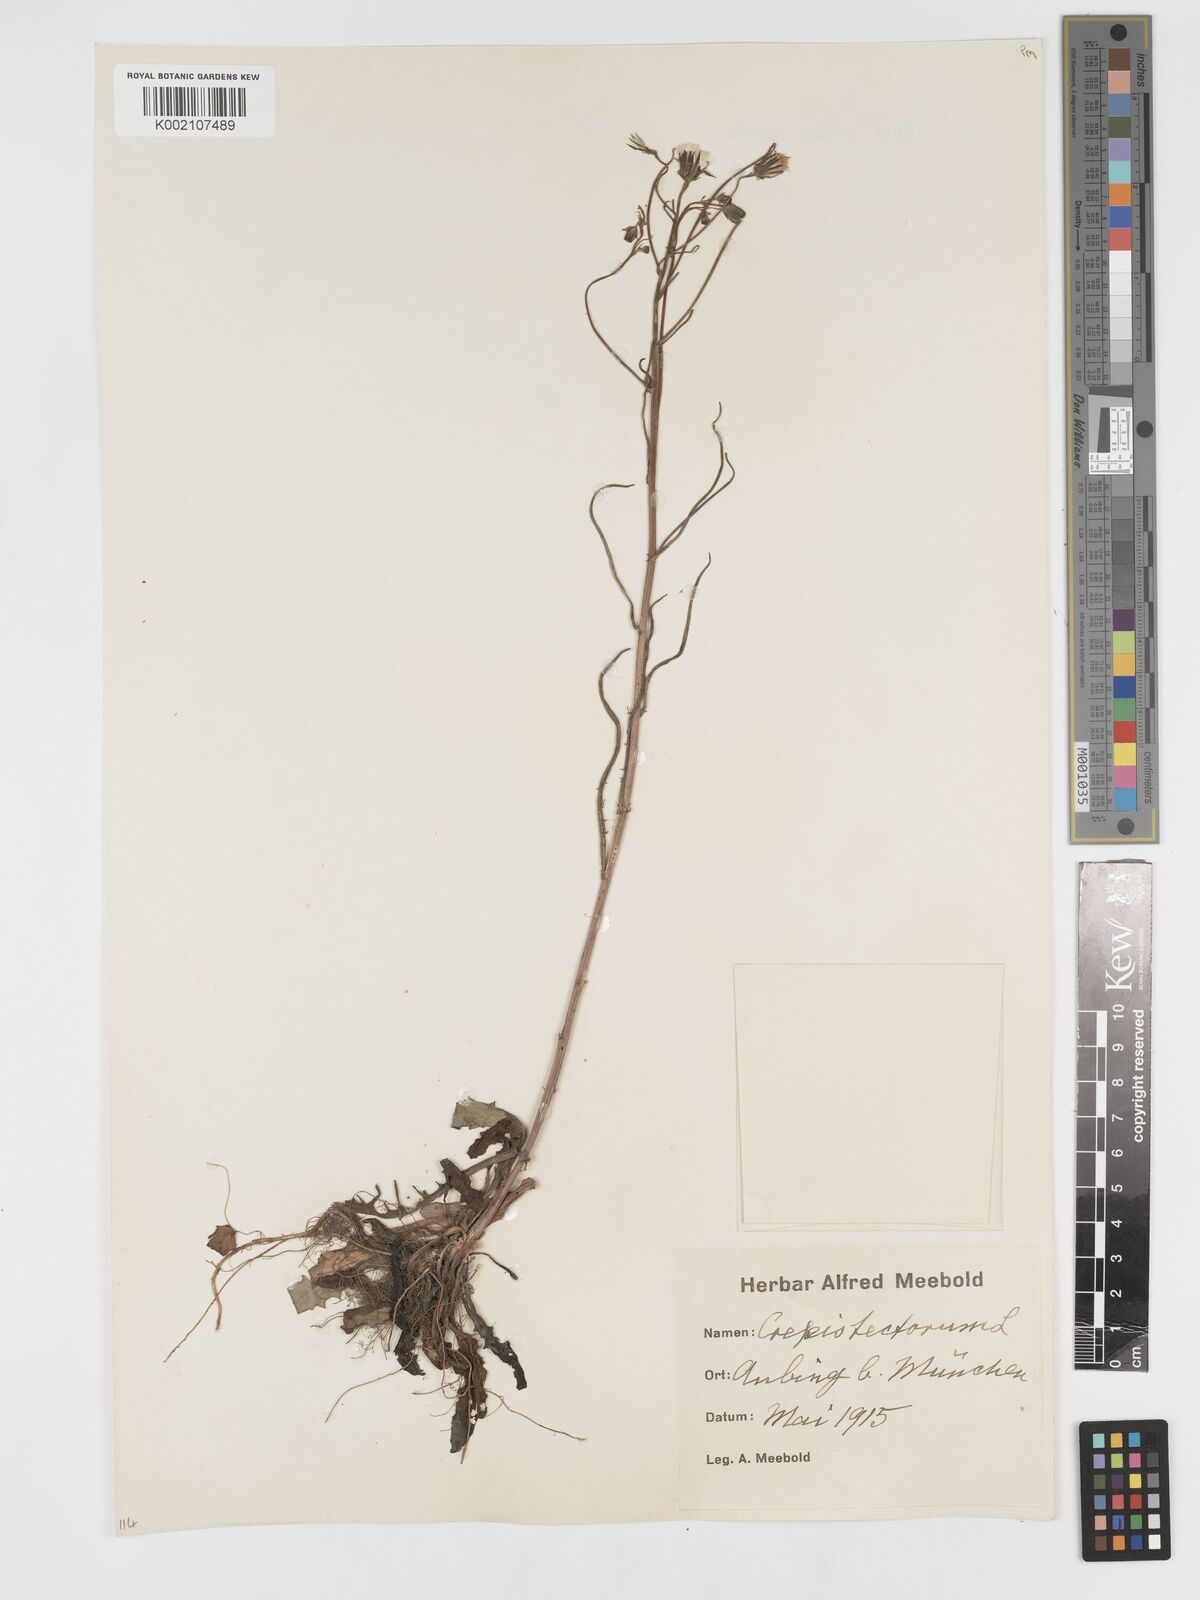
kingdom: Plantae
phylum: Tracheophyta
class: Magnoliopsida
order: Asterales
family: Asteraceae
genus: Crepis
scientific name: Crepis tectorum
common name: Narrow-leaved hawk's-beard
